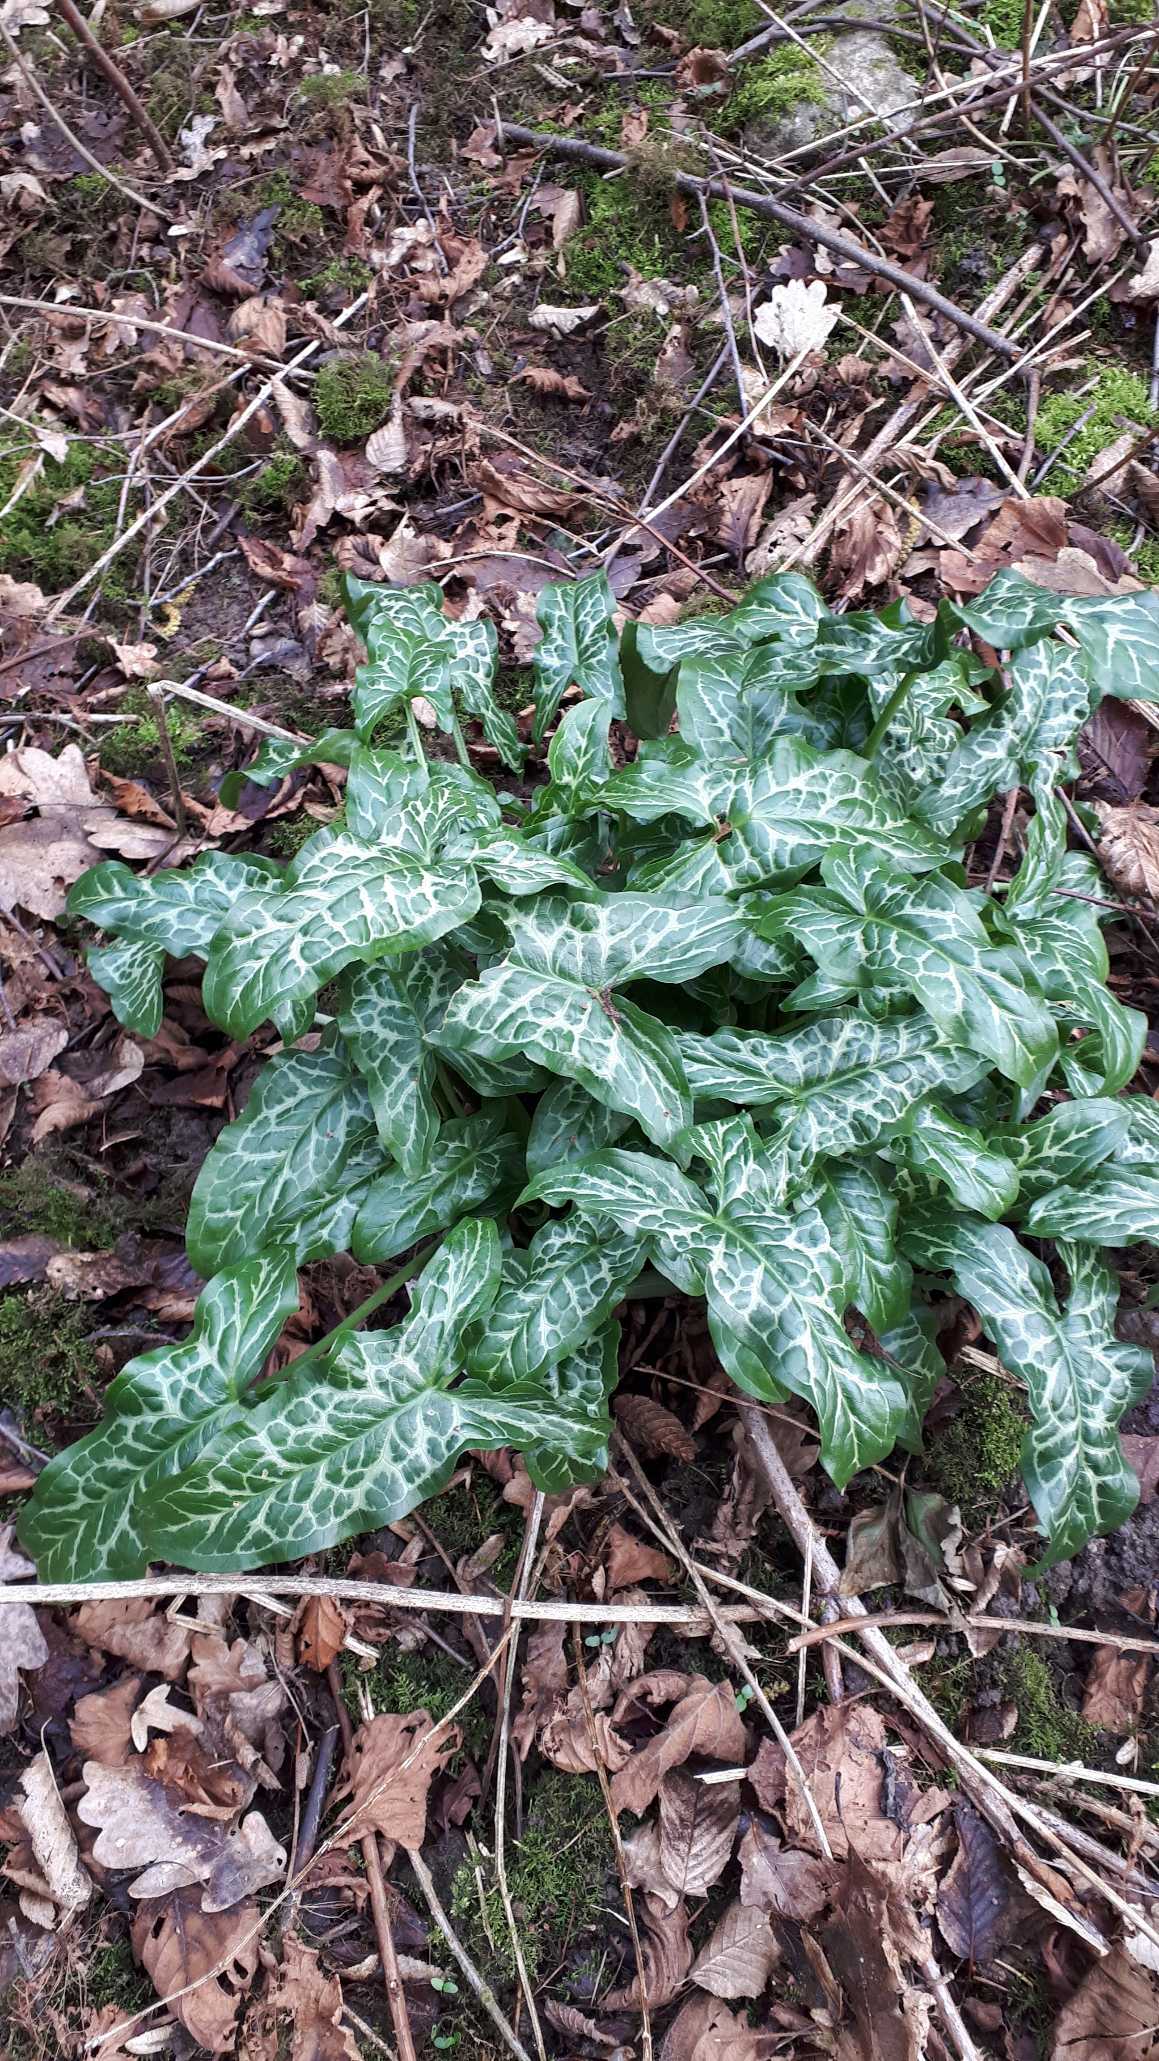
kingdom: Plantae
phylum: Tracheophyta
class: Liliopsida
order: Alismatales
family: Araceae
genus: Arum
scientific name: Arum italicum
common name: Italiensk arum
